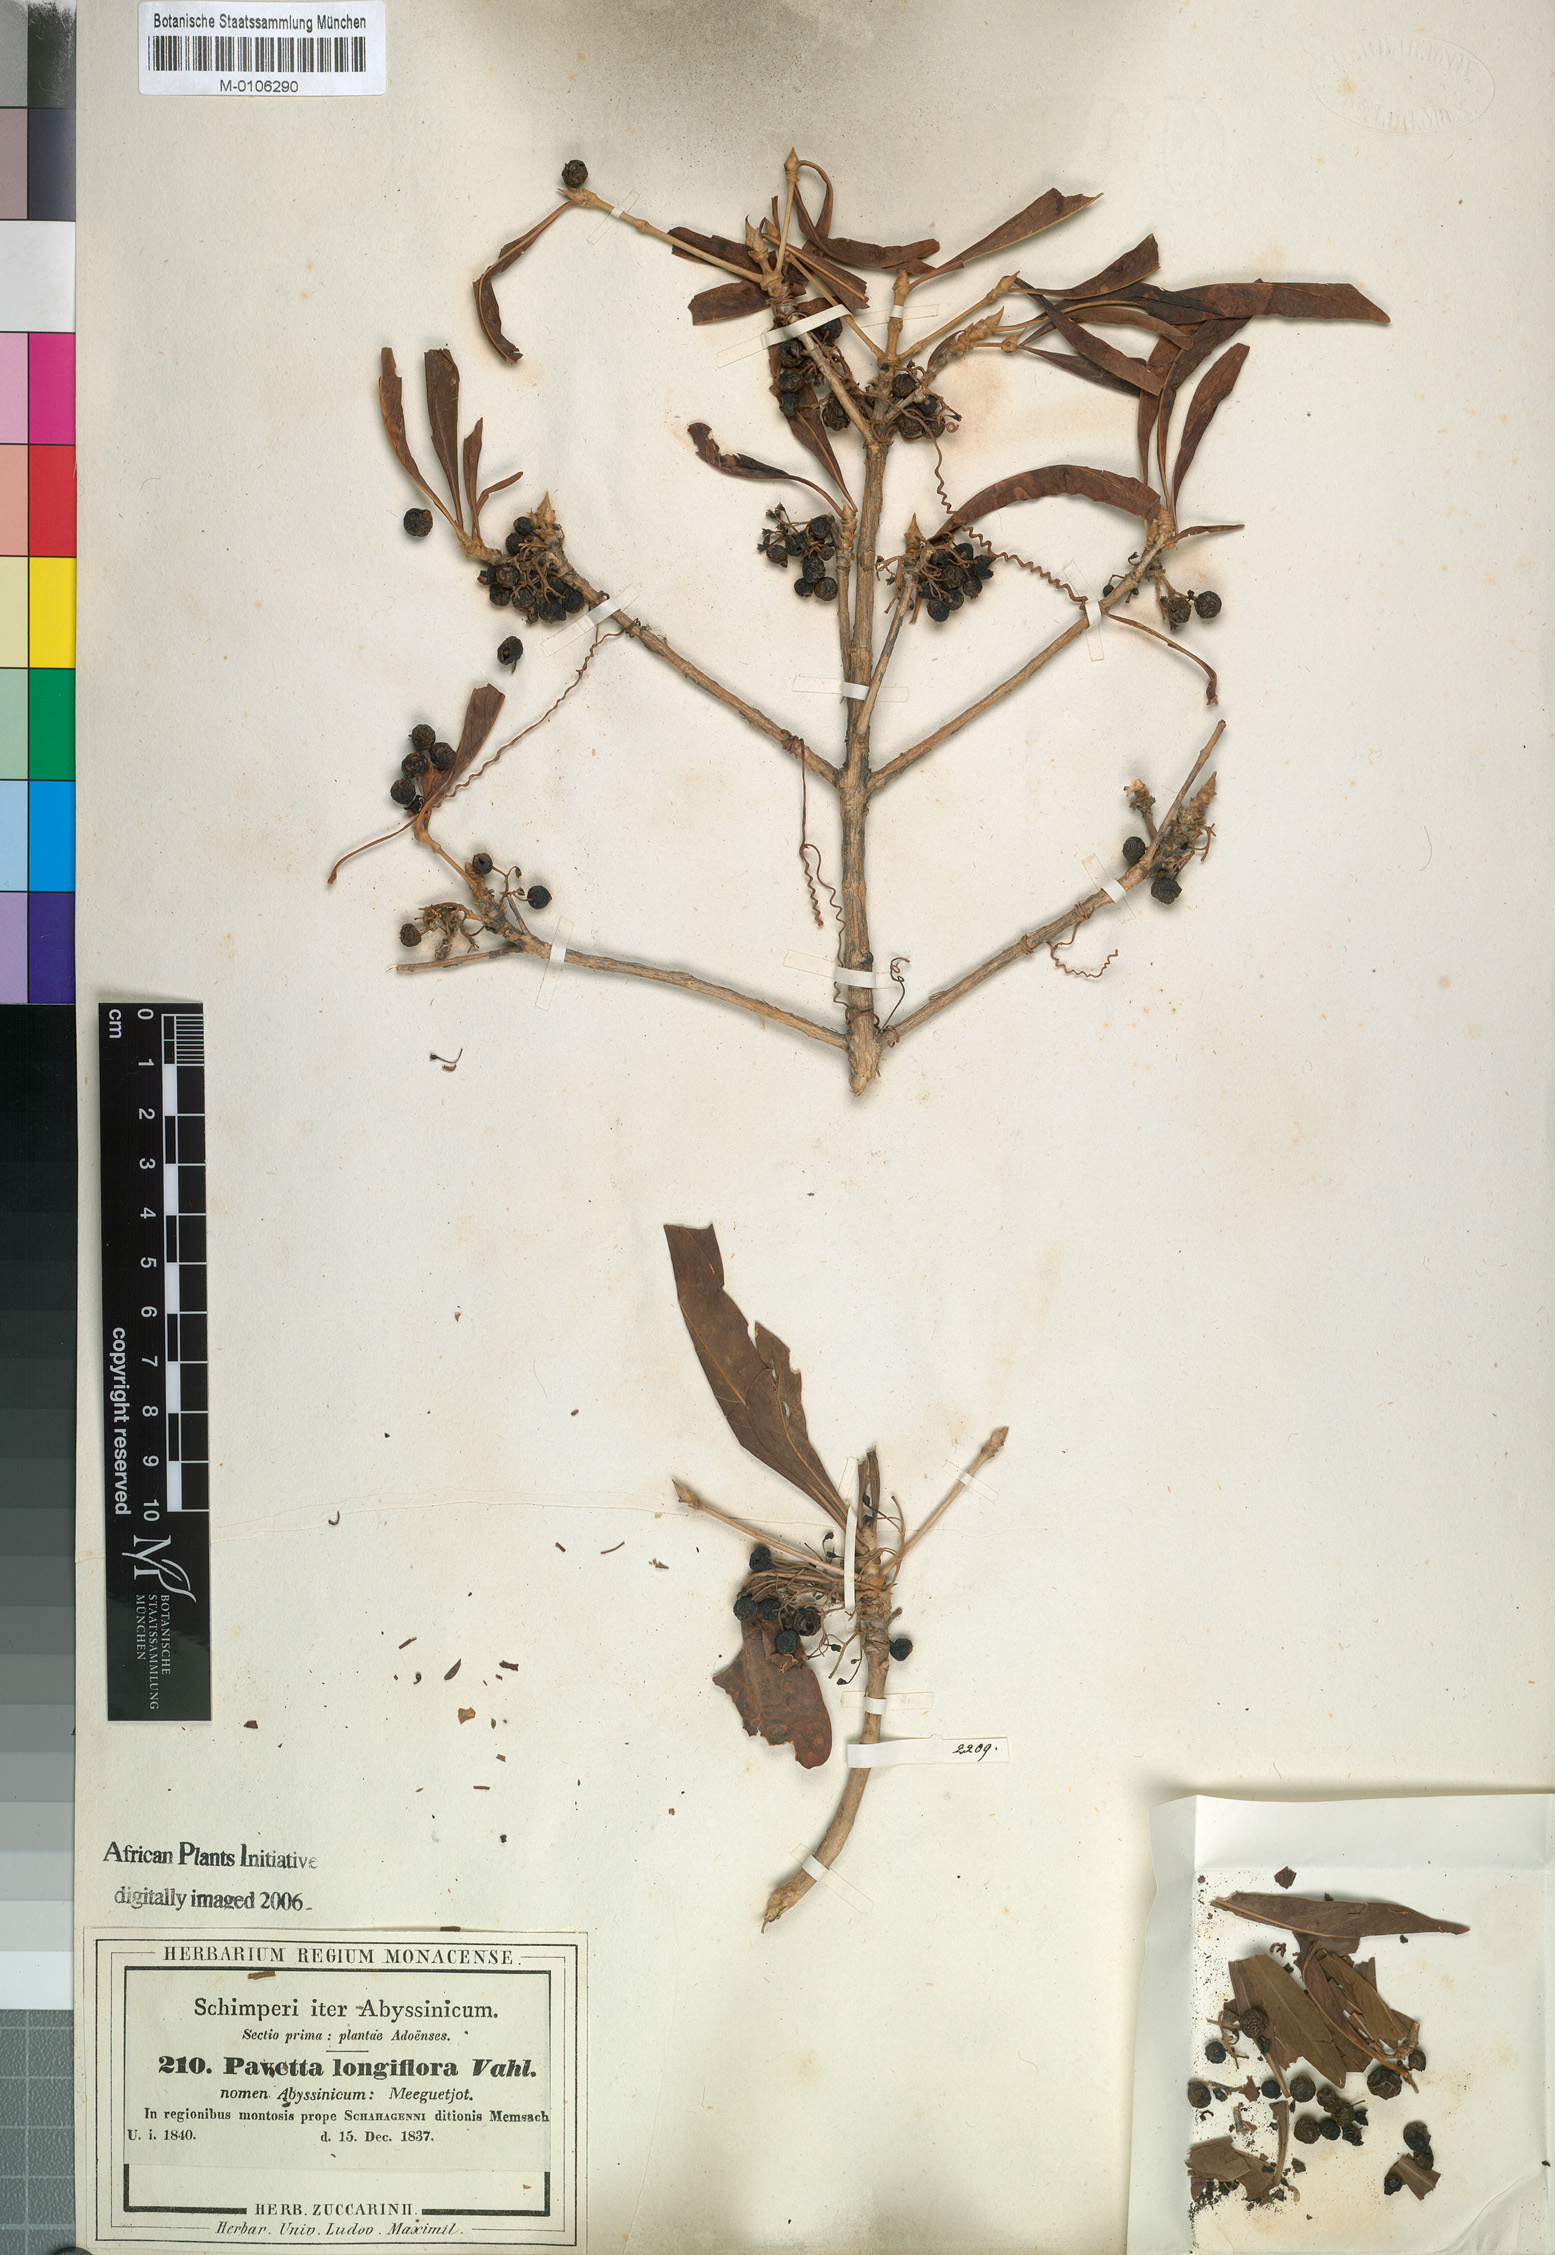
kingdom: Plantae
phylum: Tracheophyta
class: Magnoliopsida
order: Gentianales
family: Rubiaceae
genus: Pavetta
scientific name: Pavetta gardeniifolia
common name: Common brides-bush
